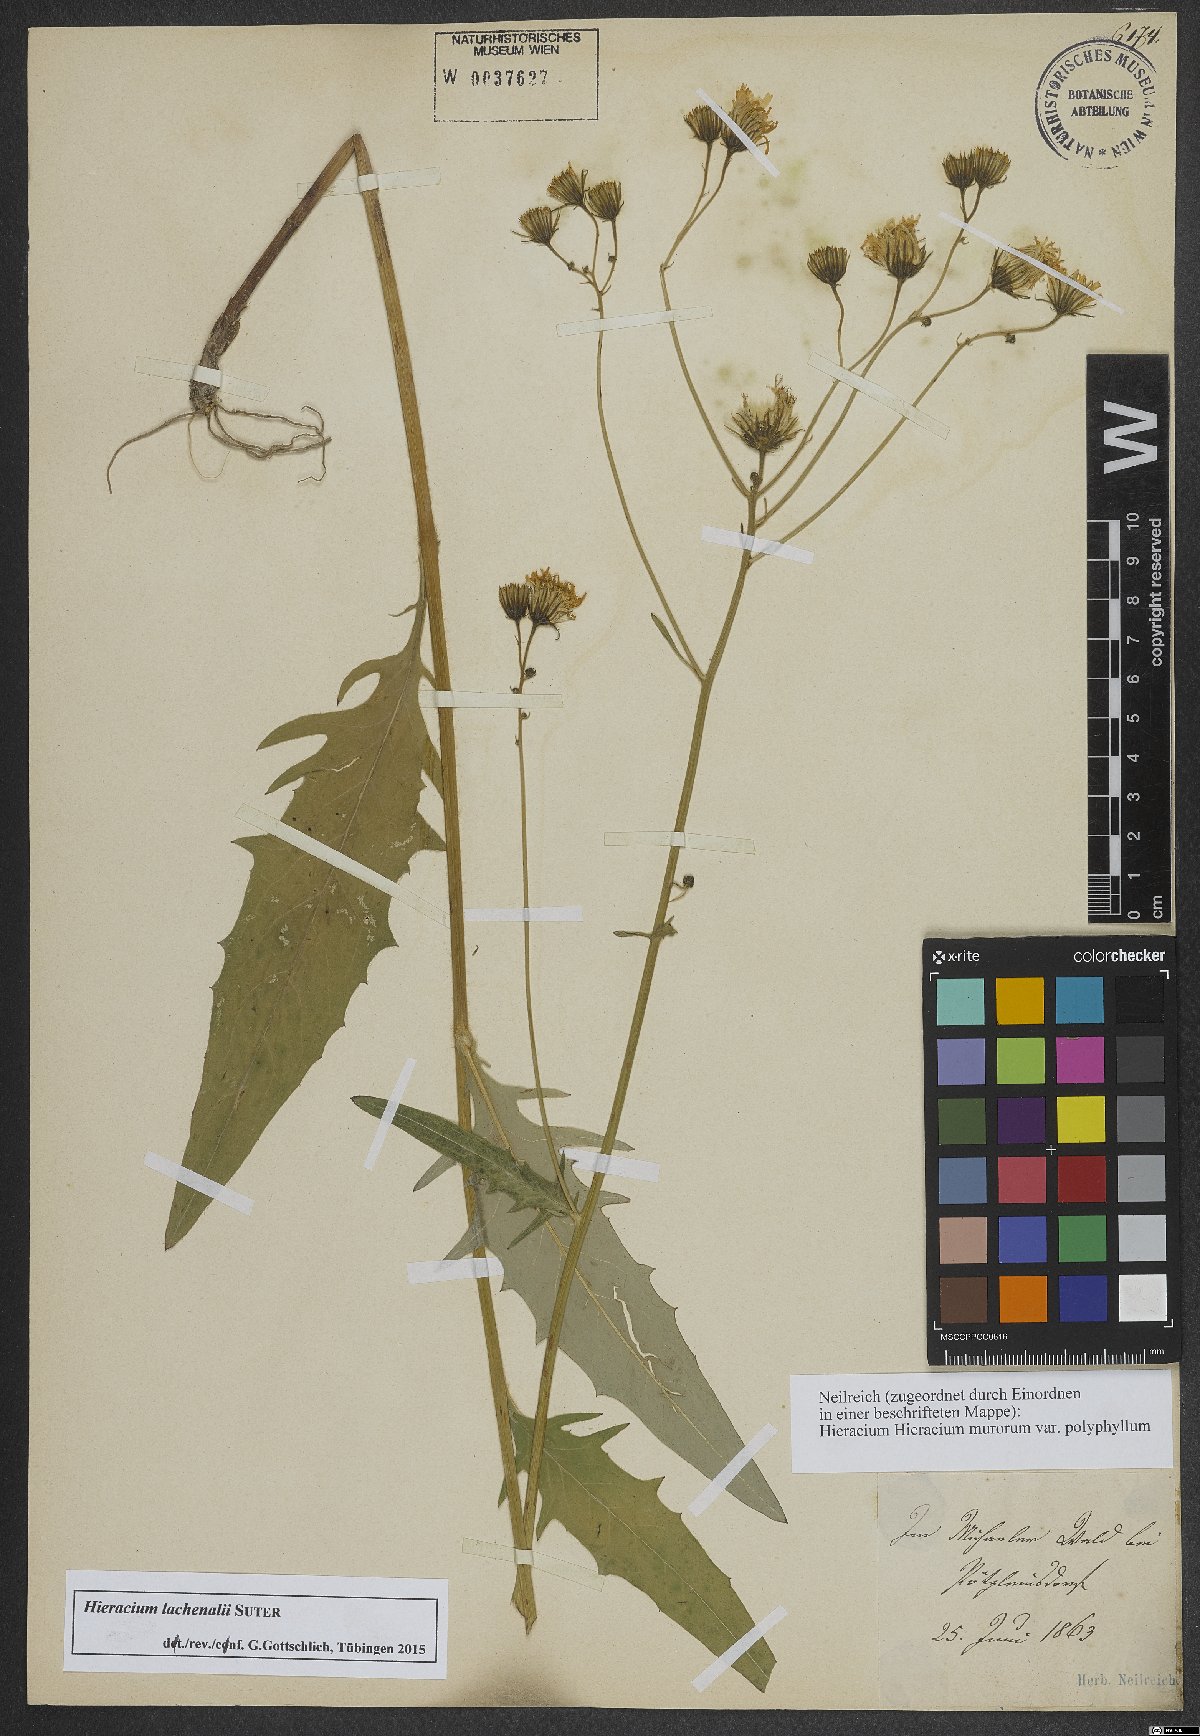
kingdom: Plantae
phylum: Tracheophyta
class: Magnoliopsida
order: Asterales
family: Asteraceae
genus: Hieracium
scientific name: Hieracium lachenalii
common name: Common hawkweed
